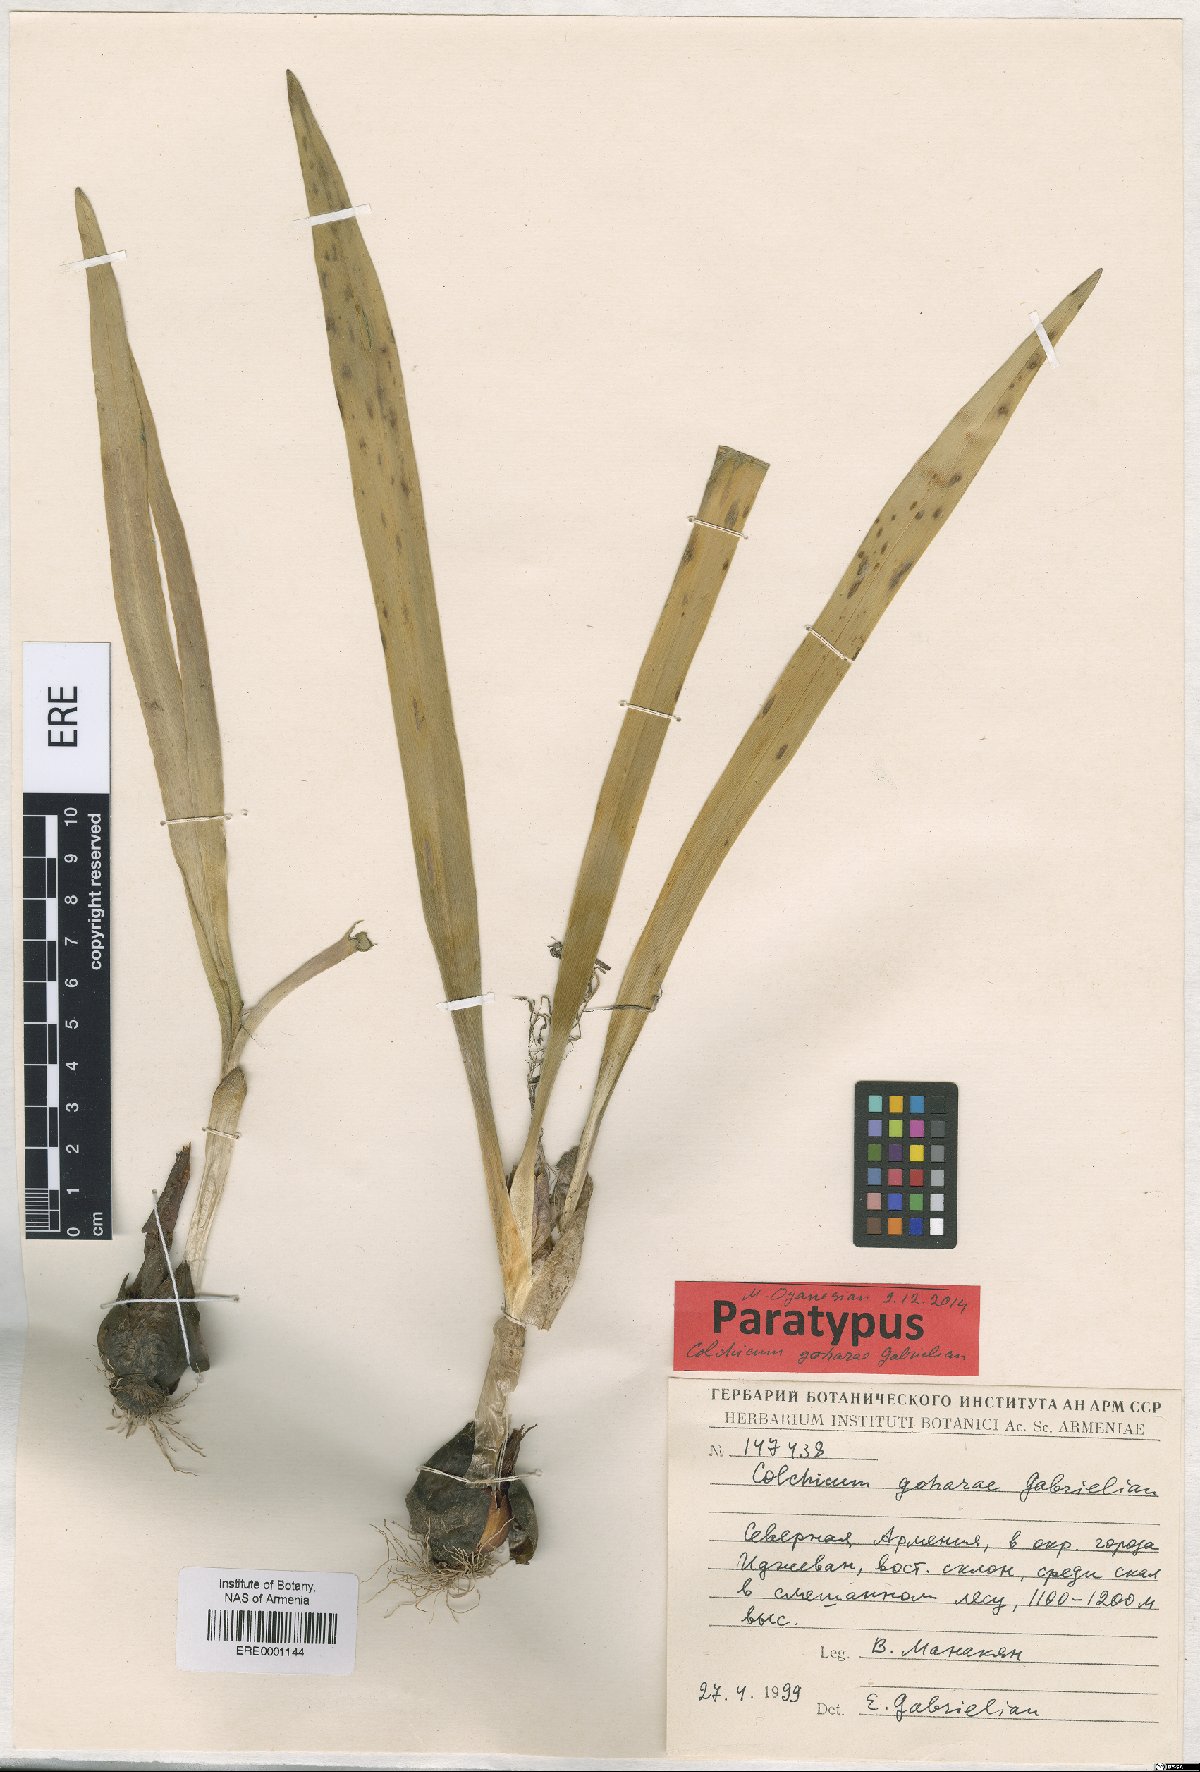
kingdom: Plantae
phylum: Tracheophyta
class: Liliopsida
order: Liliales
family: Colchicaceae
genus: Colchicum
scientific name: Colchicum szovitsii
